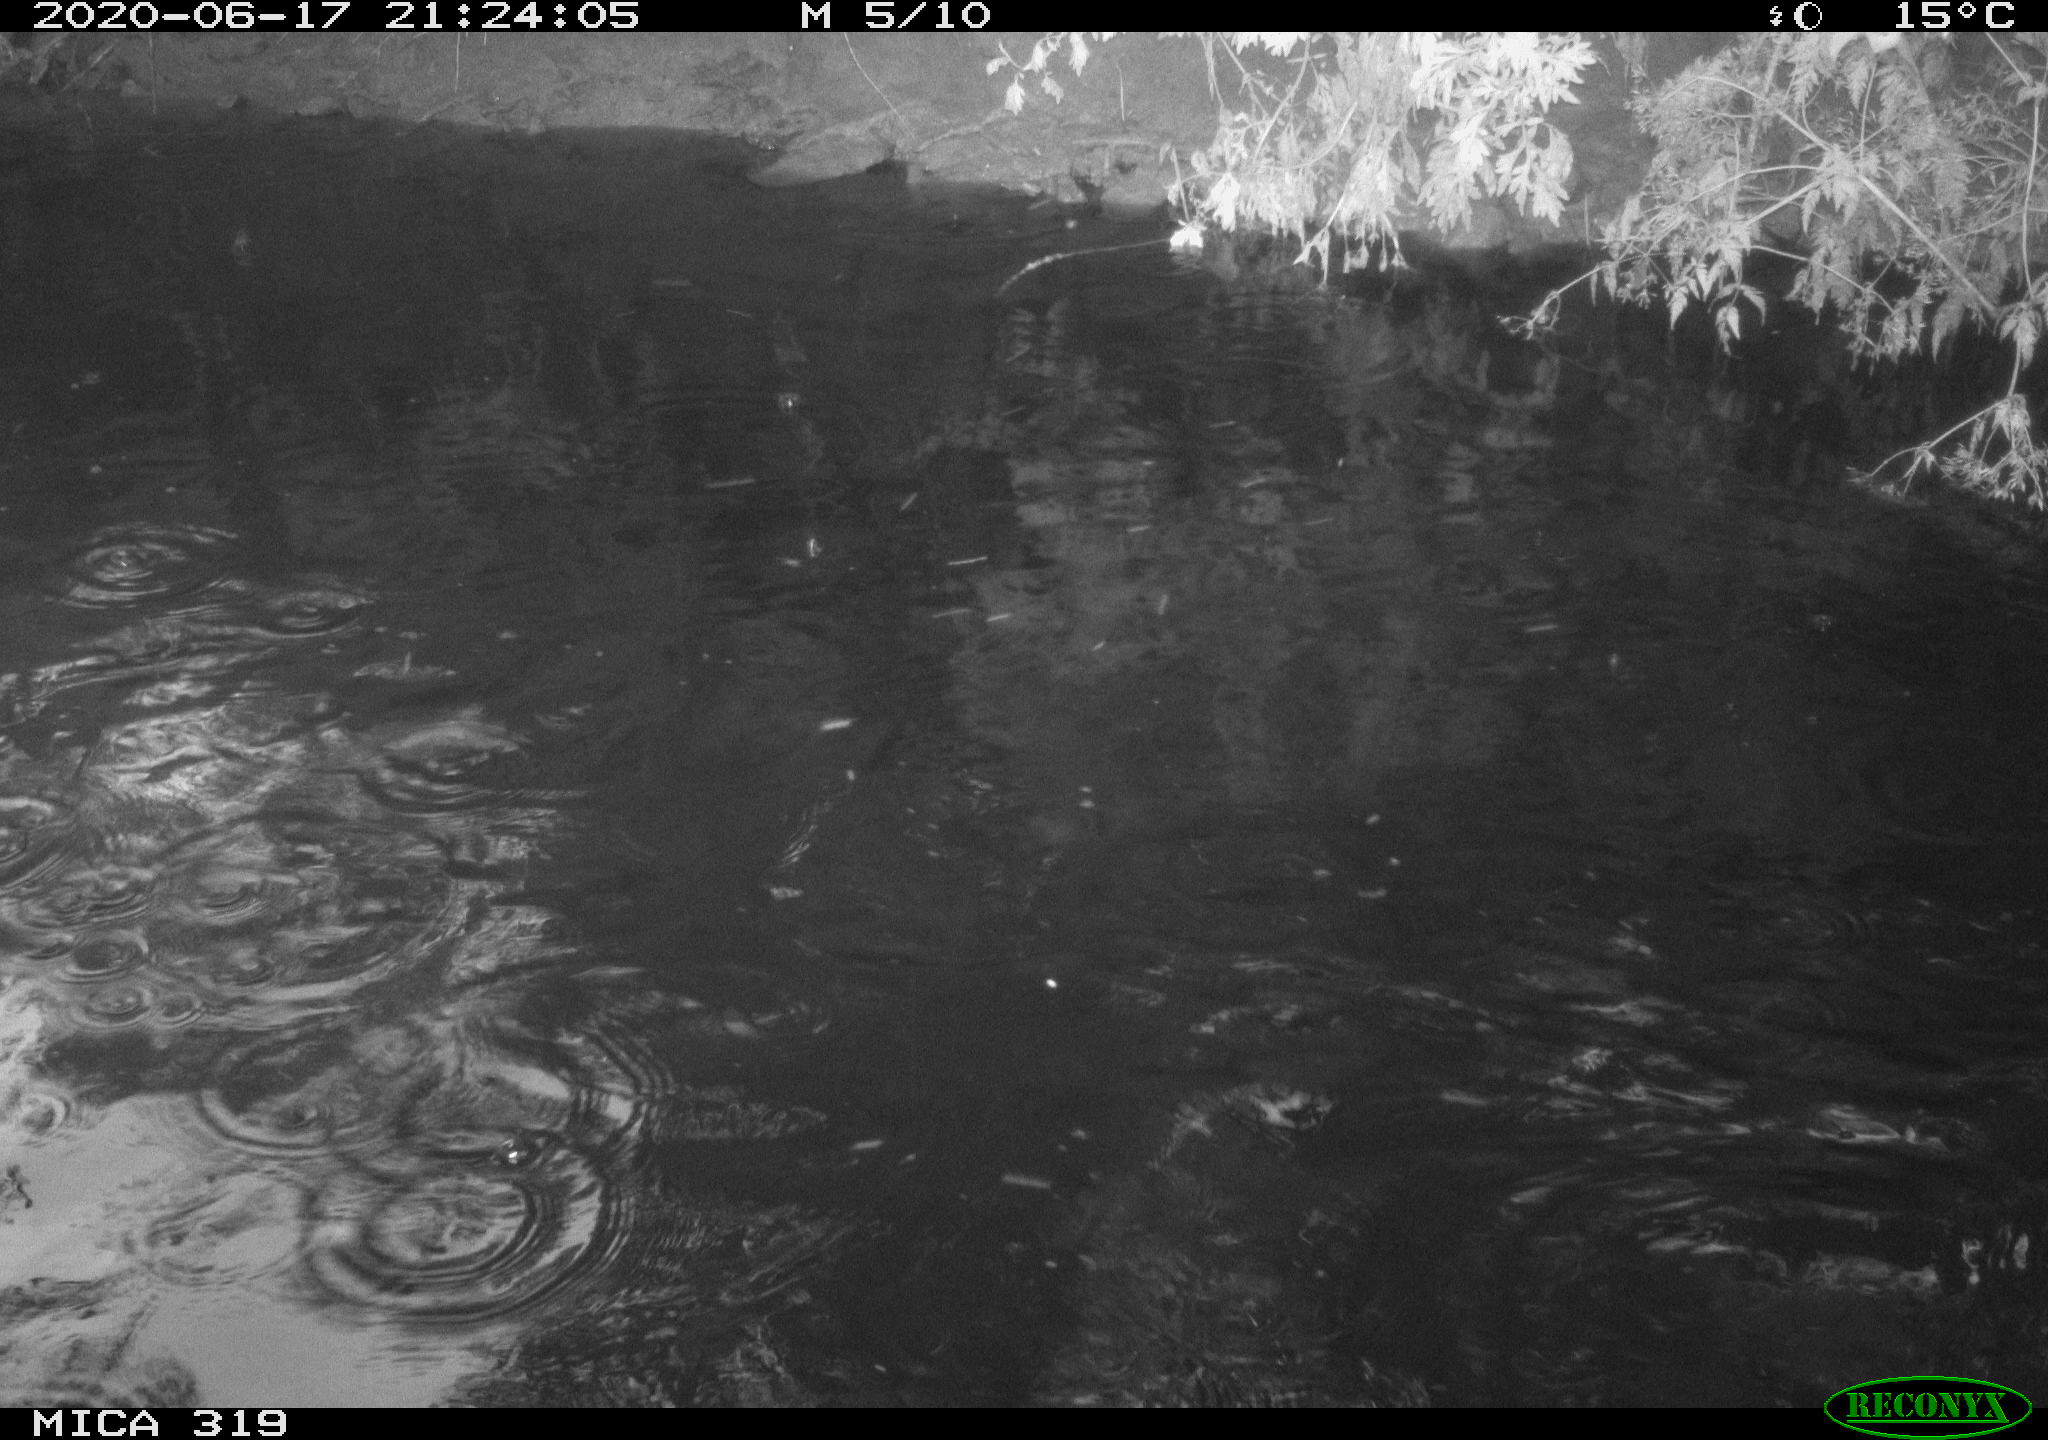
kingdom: Animalia
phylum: Chordata
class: Aves
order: Anseriformes
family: Anatidae
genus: Anas
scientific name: Anas platyrhynchos
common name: Mallard
